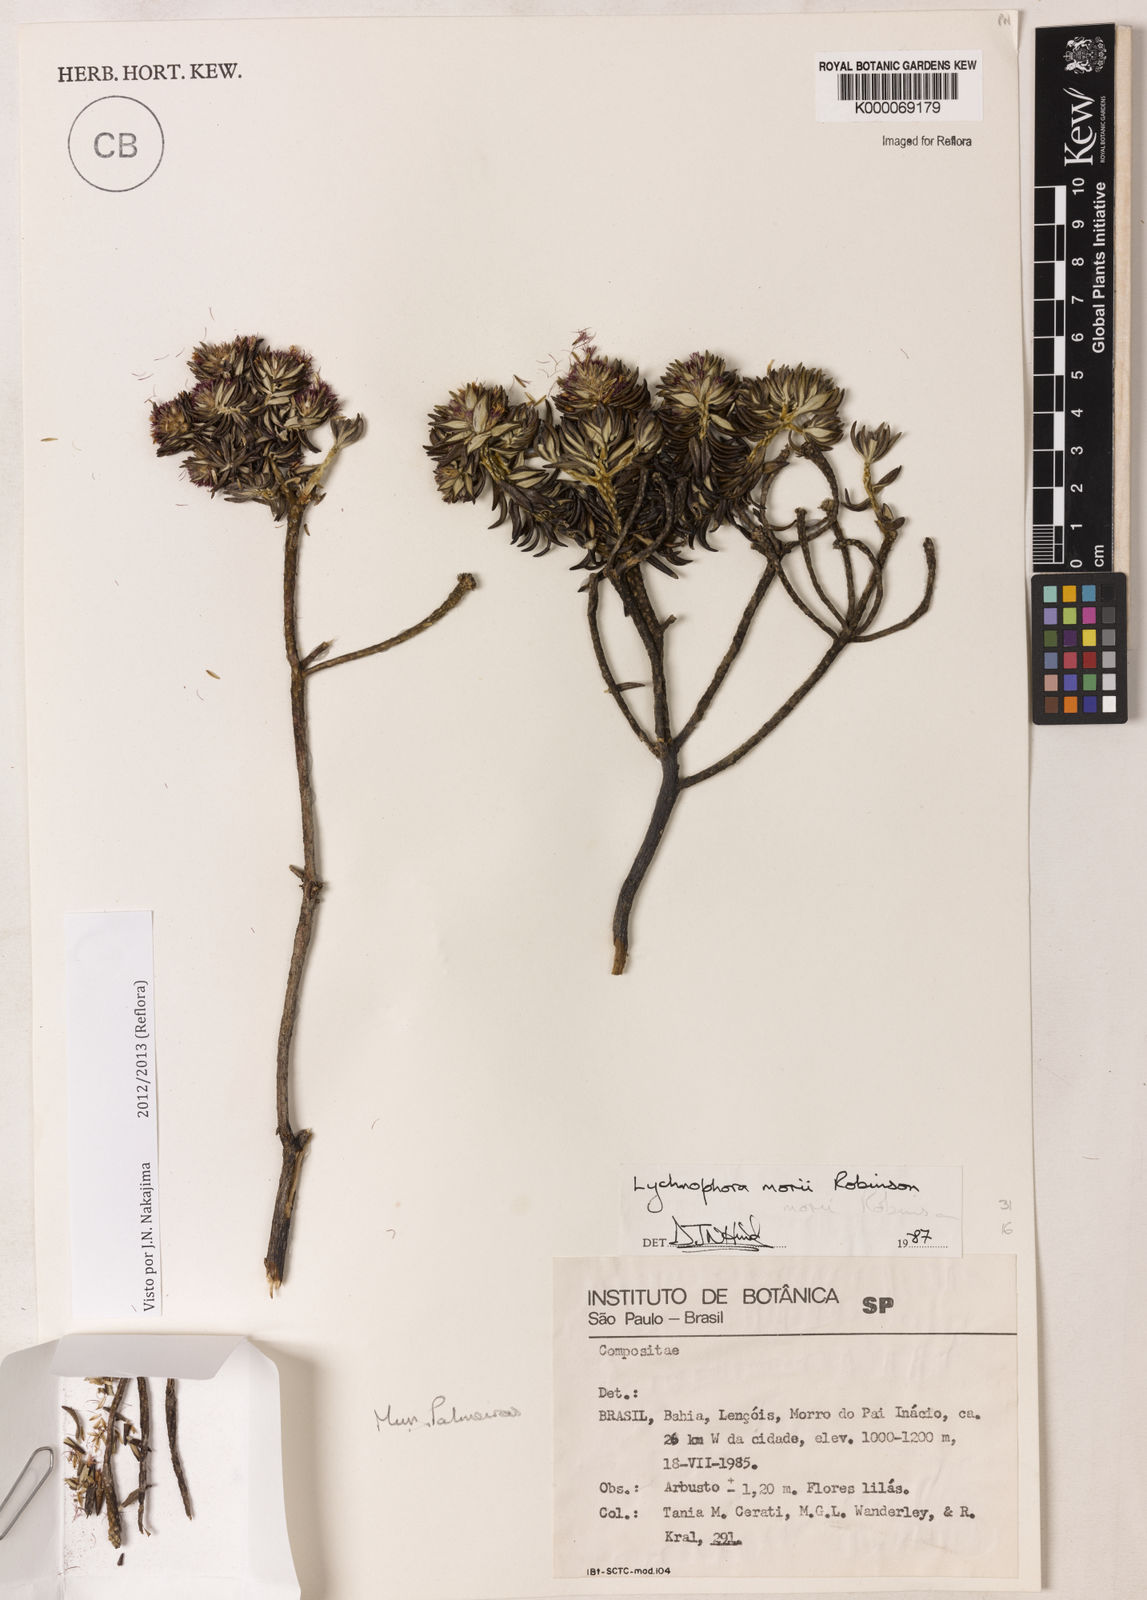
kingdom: Plantae
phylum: Tracheophyta
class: Magnoliopsida
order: Asterales
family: Asteraceae
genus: Lychnophorella
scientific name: Lychnophorella morii
